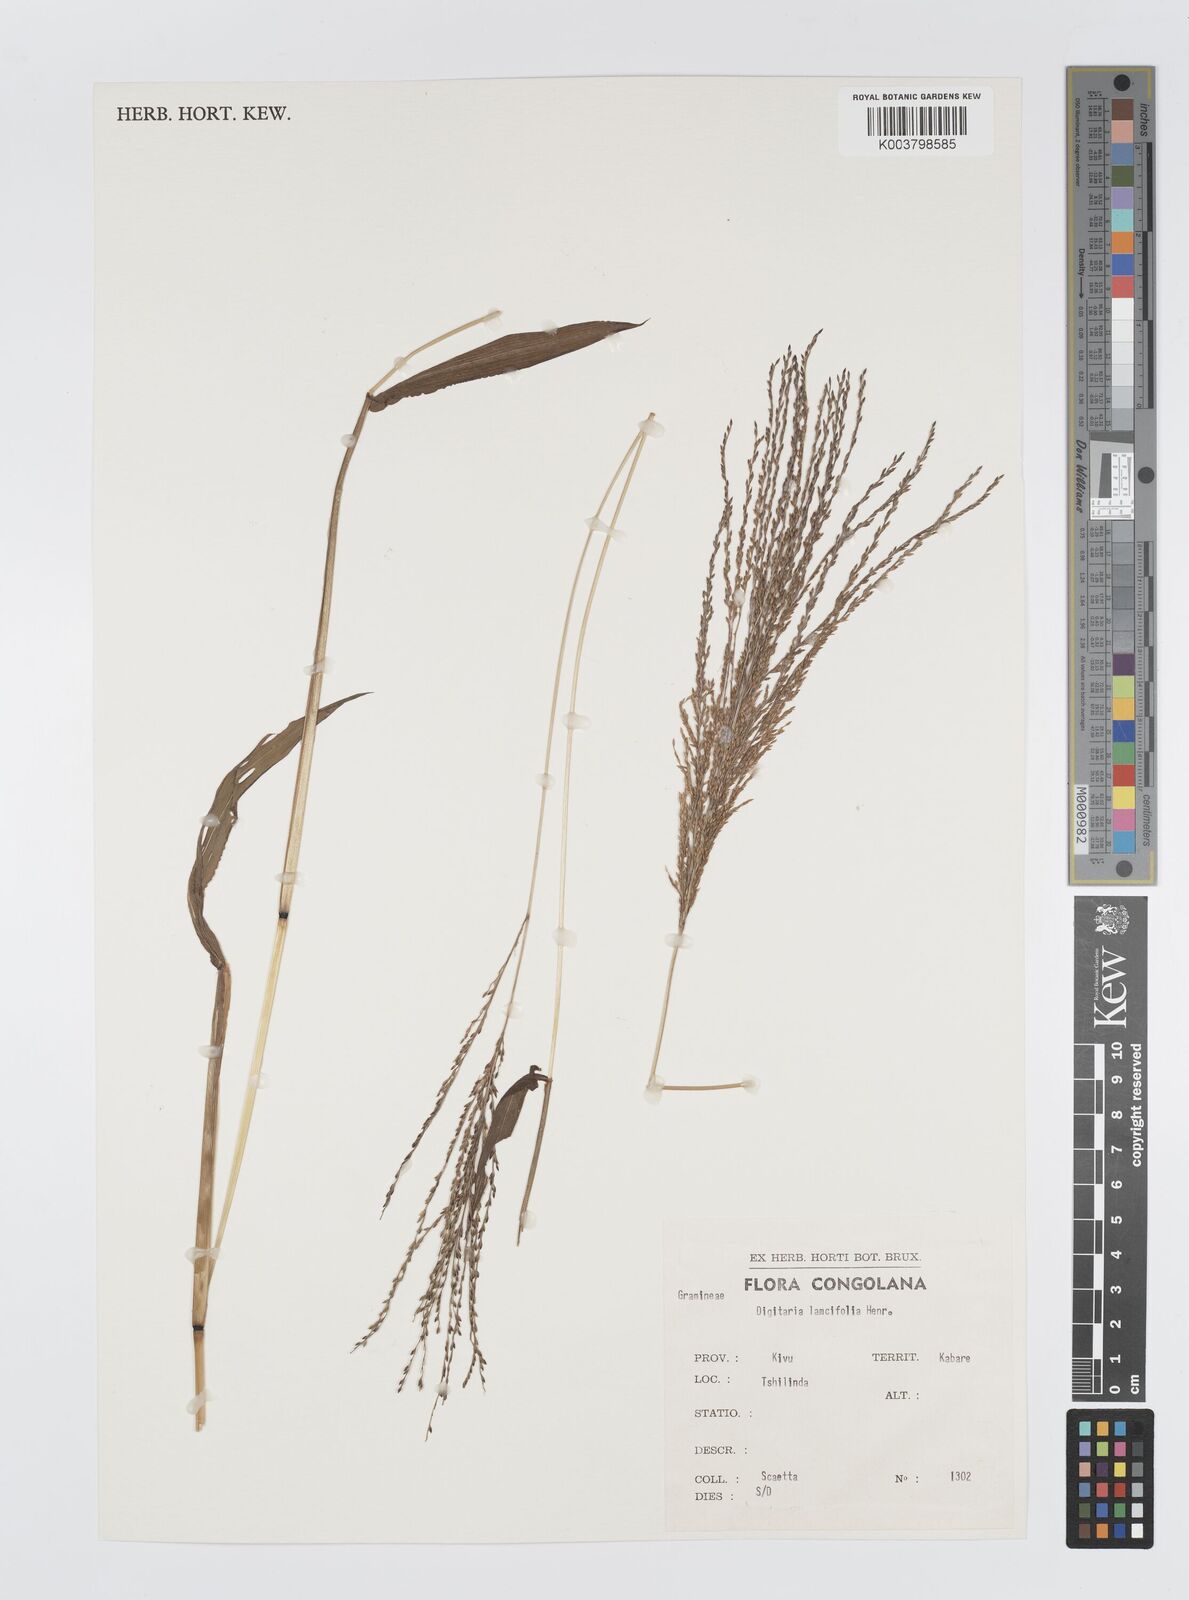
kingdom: Plantae
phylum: Tracheophyta
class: Liliopsida
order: Poales
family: Poaceae
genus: Digitaria
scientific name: Digitaria pearsonii
